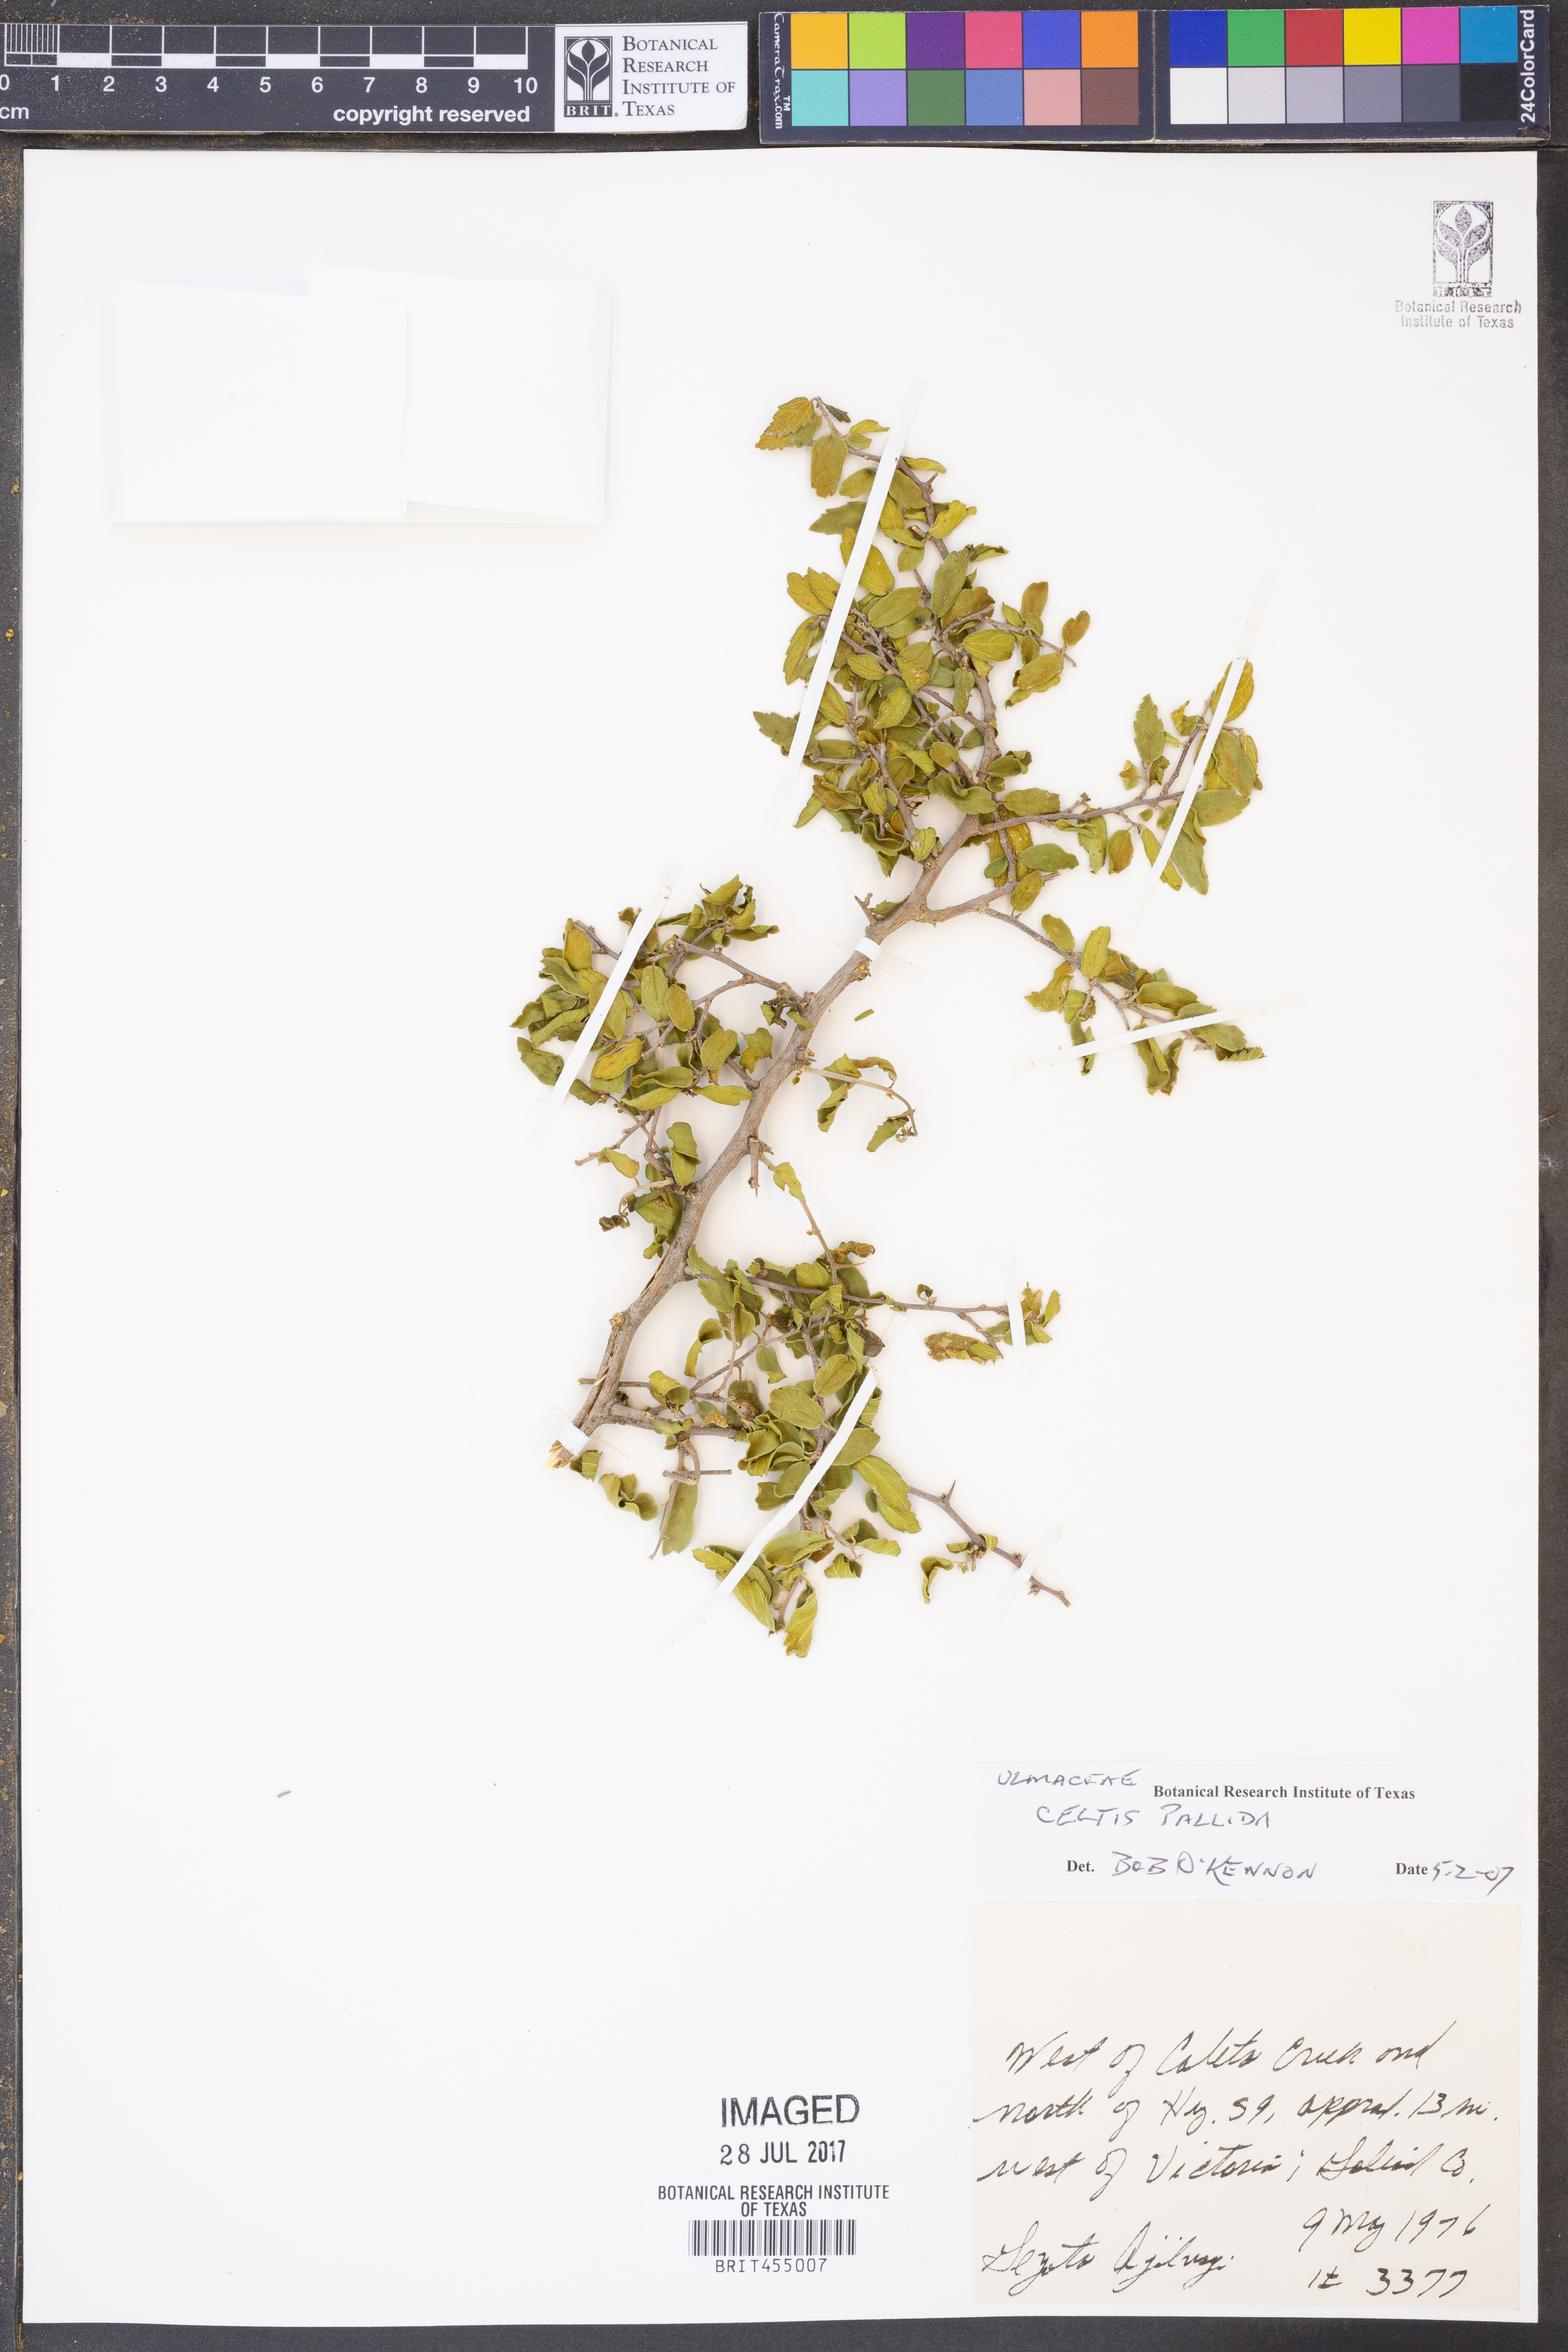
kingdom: Plantae
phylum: Tracheophyta
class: Magnoliopsida
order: Rosales
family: Cannabaceae
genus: Celtis
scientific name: Celtis pallida
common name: Desert hackberry
